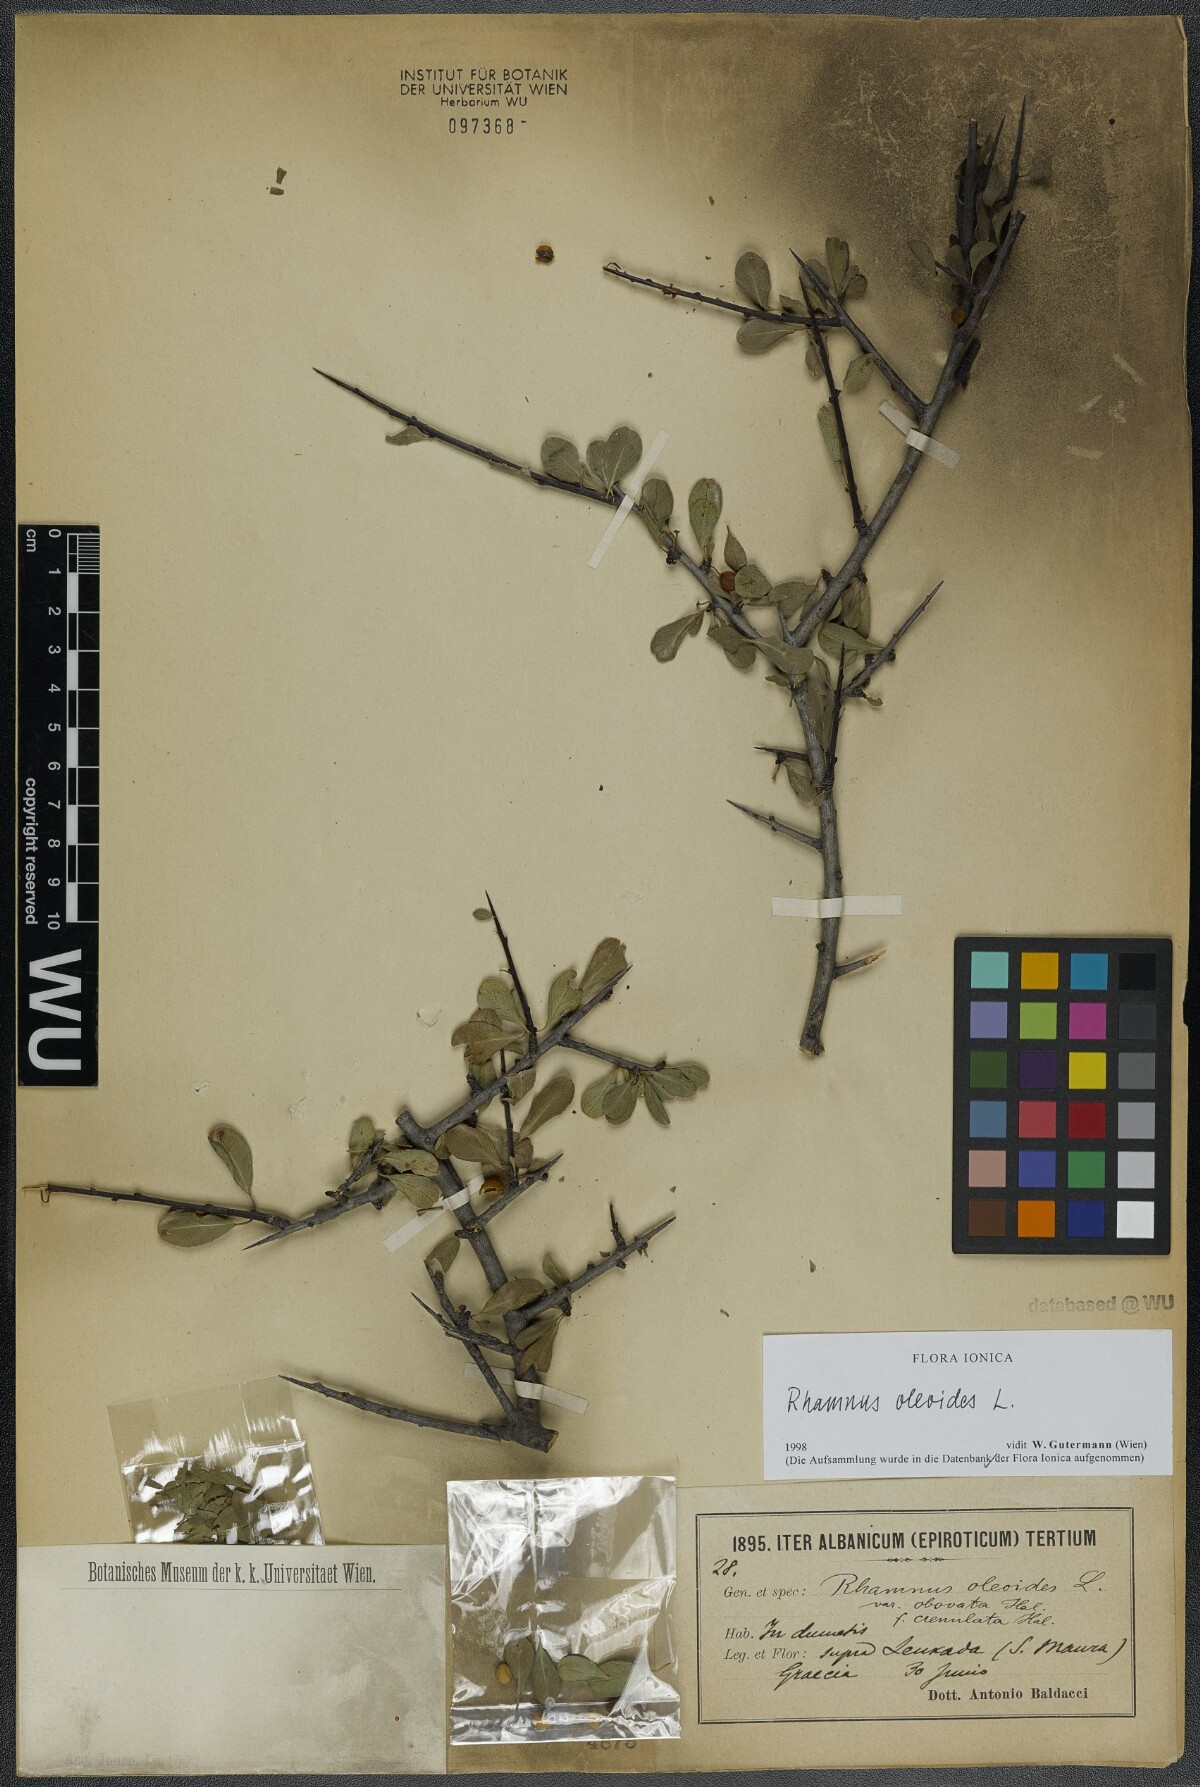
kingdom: Plantae
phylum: Tracheophyta
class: Magnoliopsida
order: Rosales
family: Rhamnaceae
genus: Rhamnus
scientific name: Rhamnus oleoides
